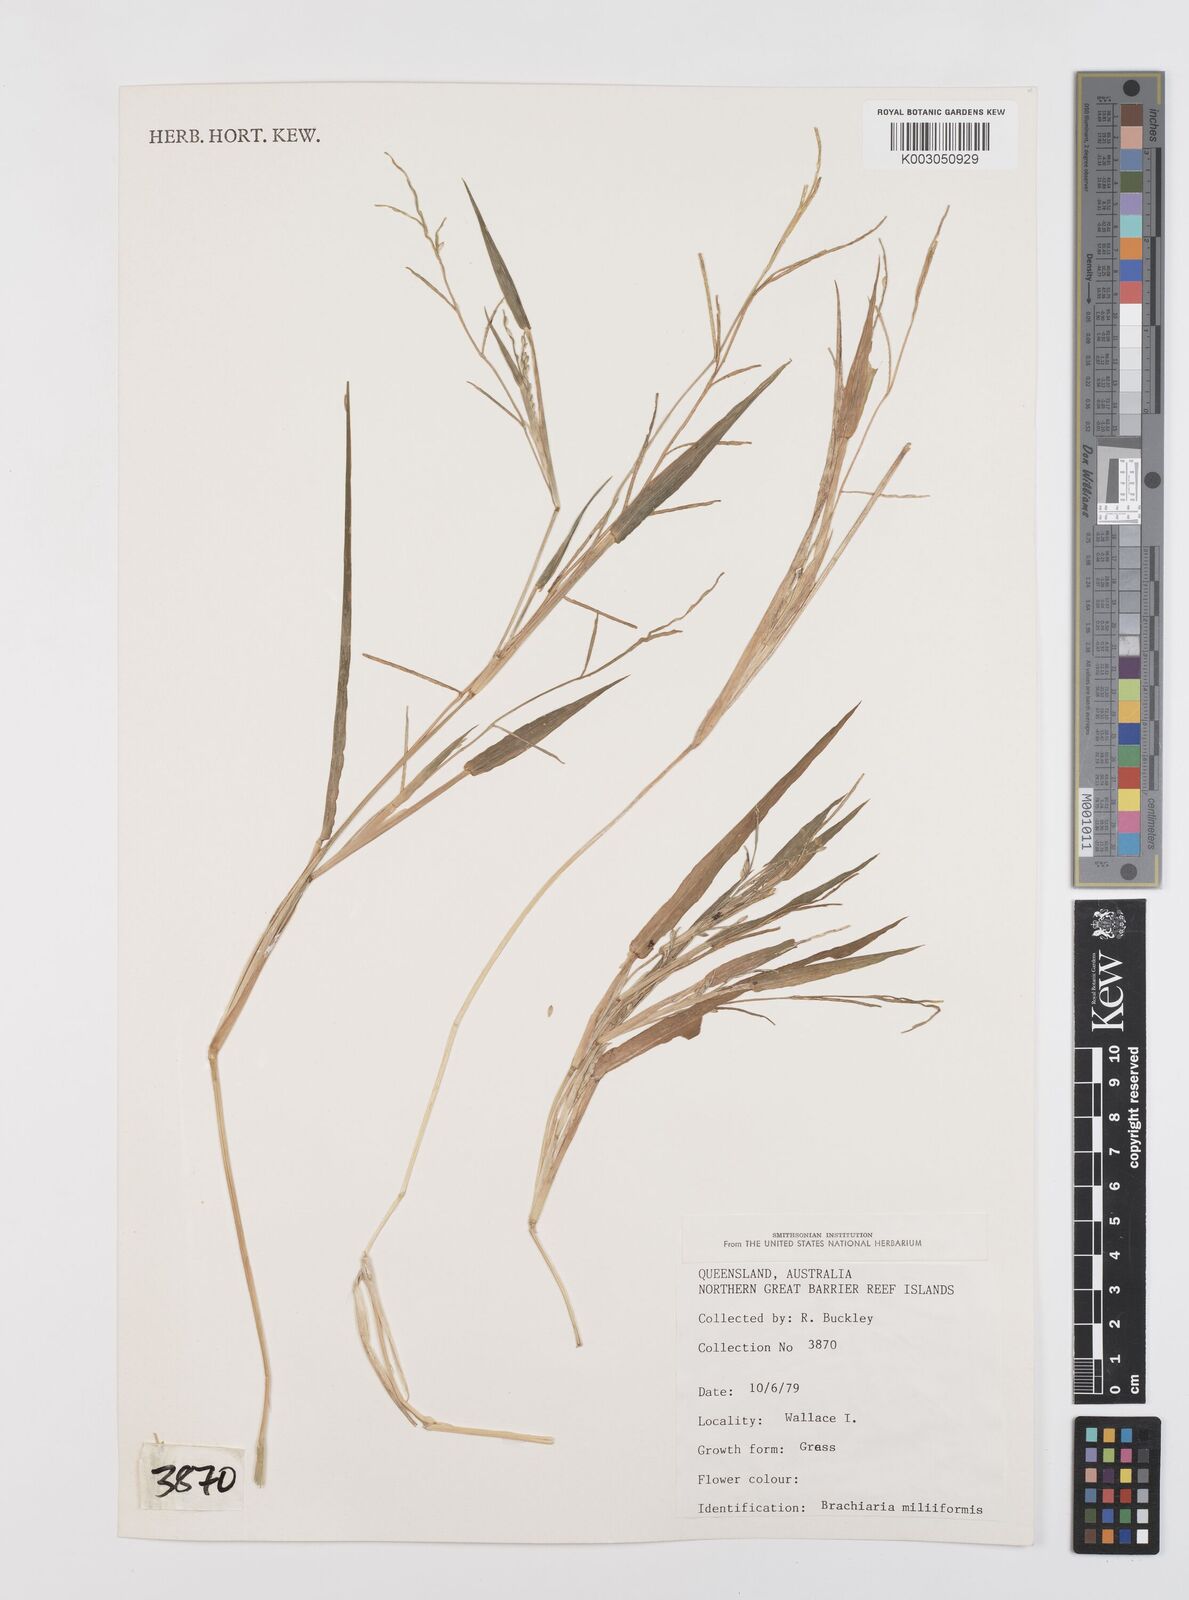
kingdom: Plantae
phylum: Tracheophyta
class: Liliopsida
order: Poales
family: Poaceae
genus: Urochloa
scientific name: Urochloa subquadripara
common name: Armgrass millet
